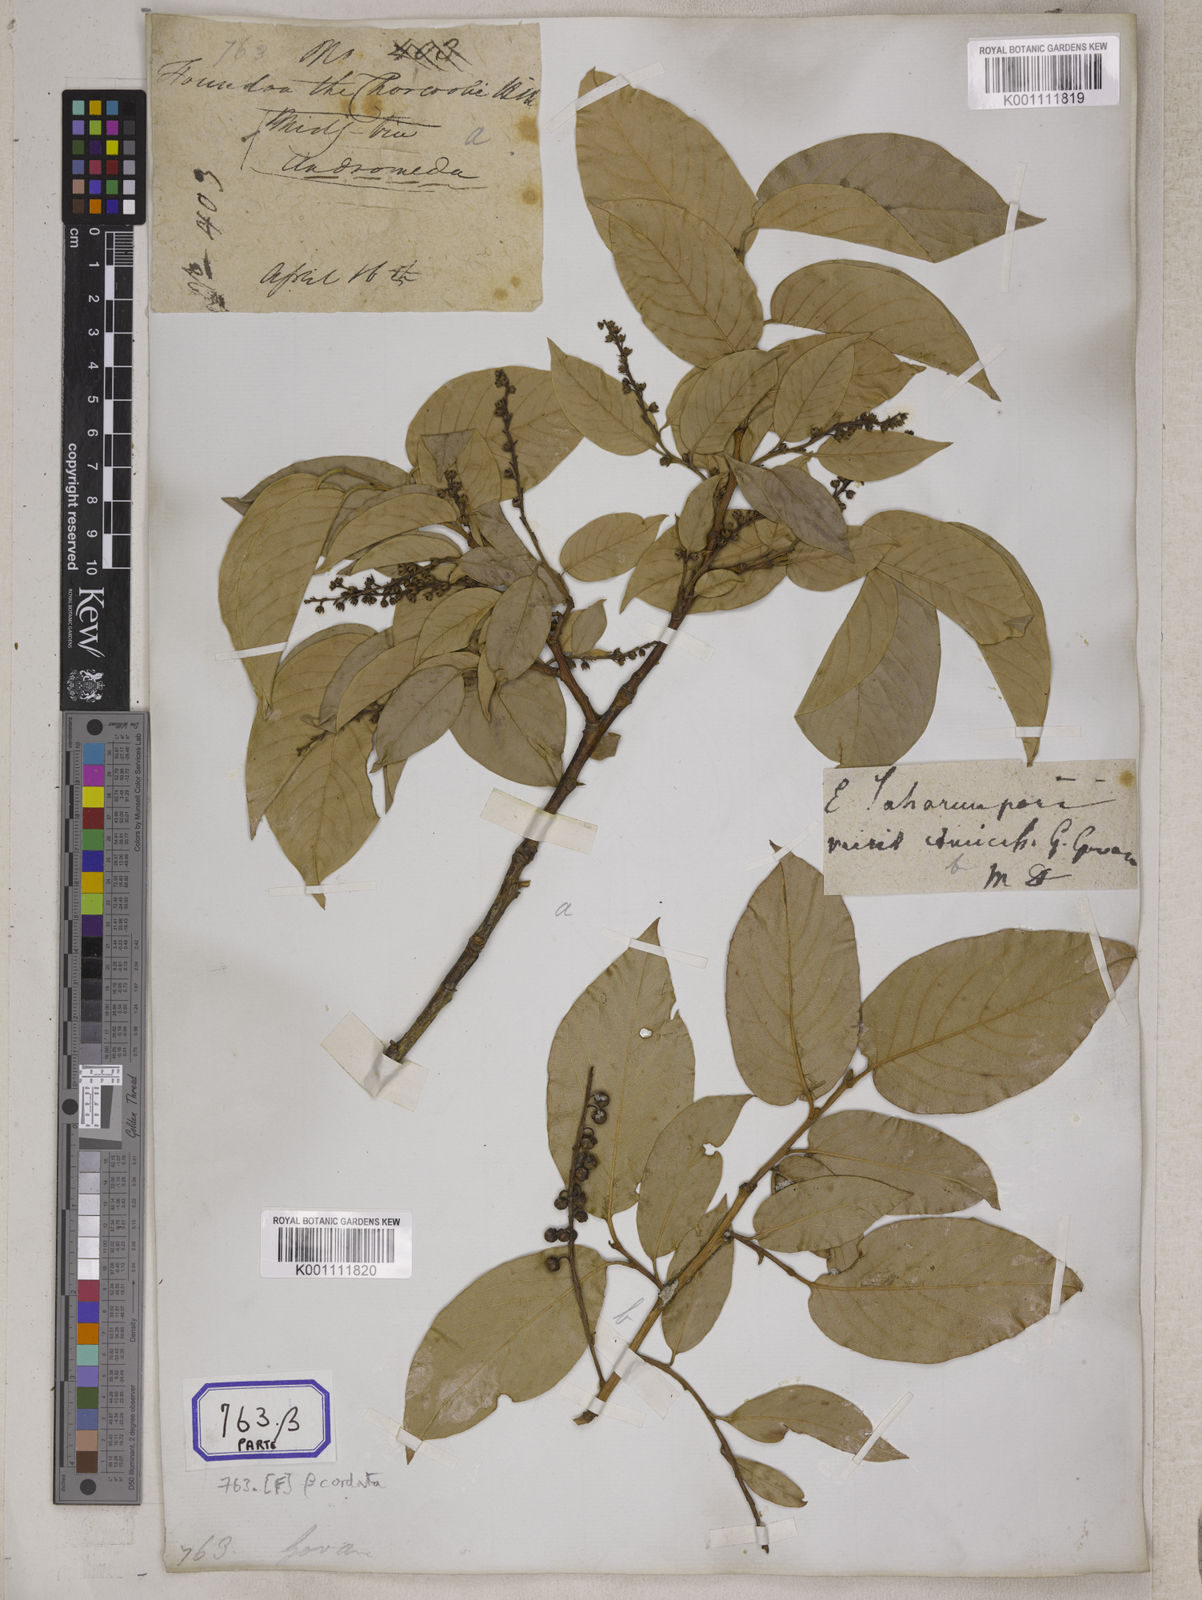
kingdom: Plantae
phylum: Tracheophyta
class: Magnoliopsida
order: Ericales
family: Ericaceae
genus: Lyonia
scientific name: Lyonia ovalifolia
